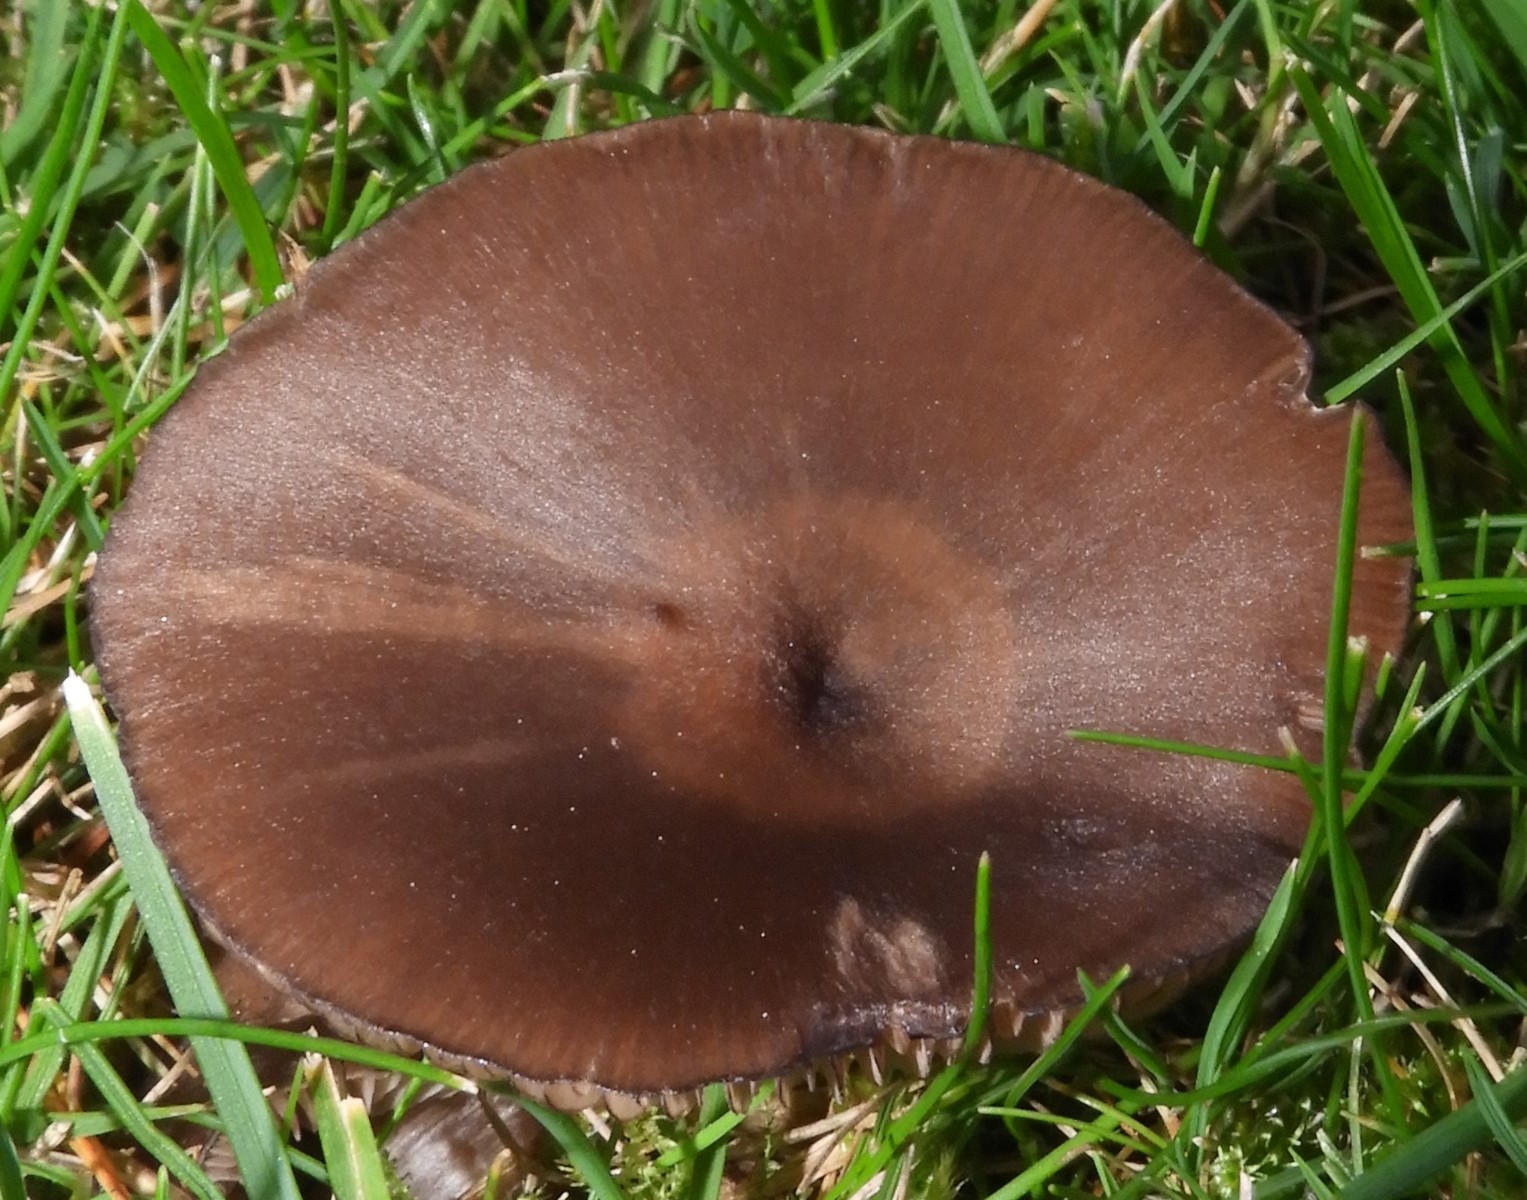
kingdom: Fungi
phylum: Basidiomycota
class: Agaricomycetes
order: Agaricales
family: Entolomataceae
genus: Entoloma
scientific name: Entoloma
